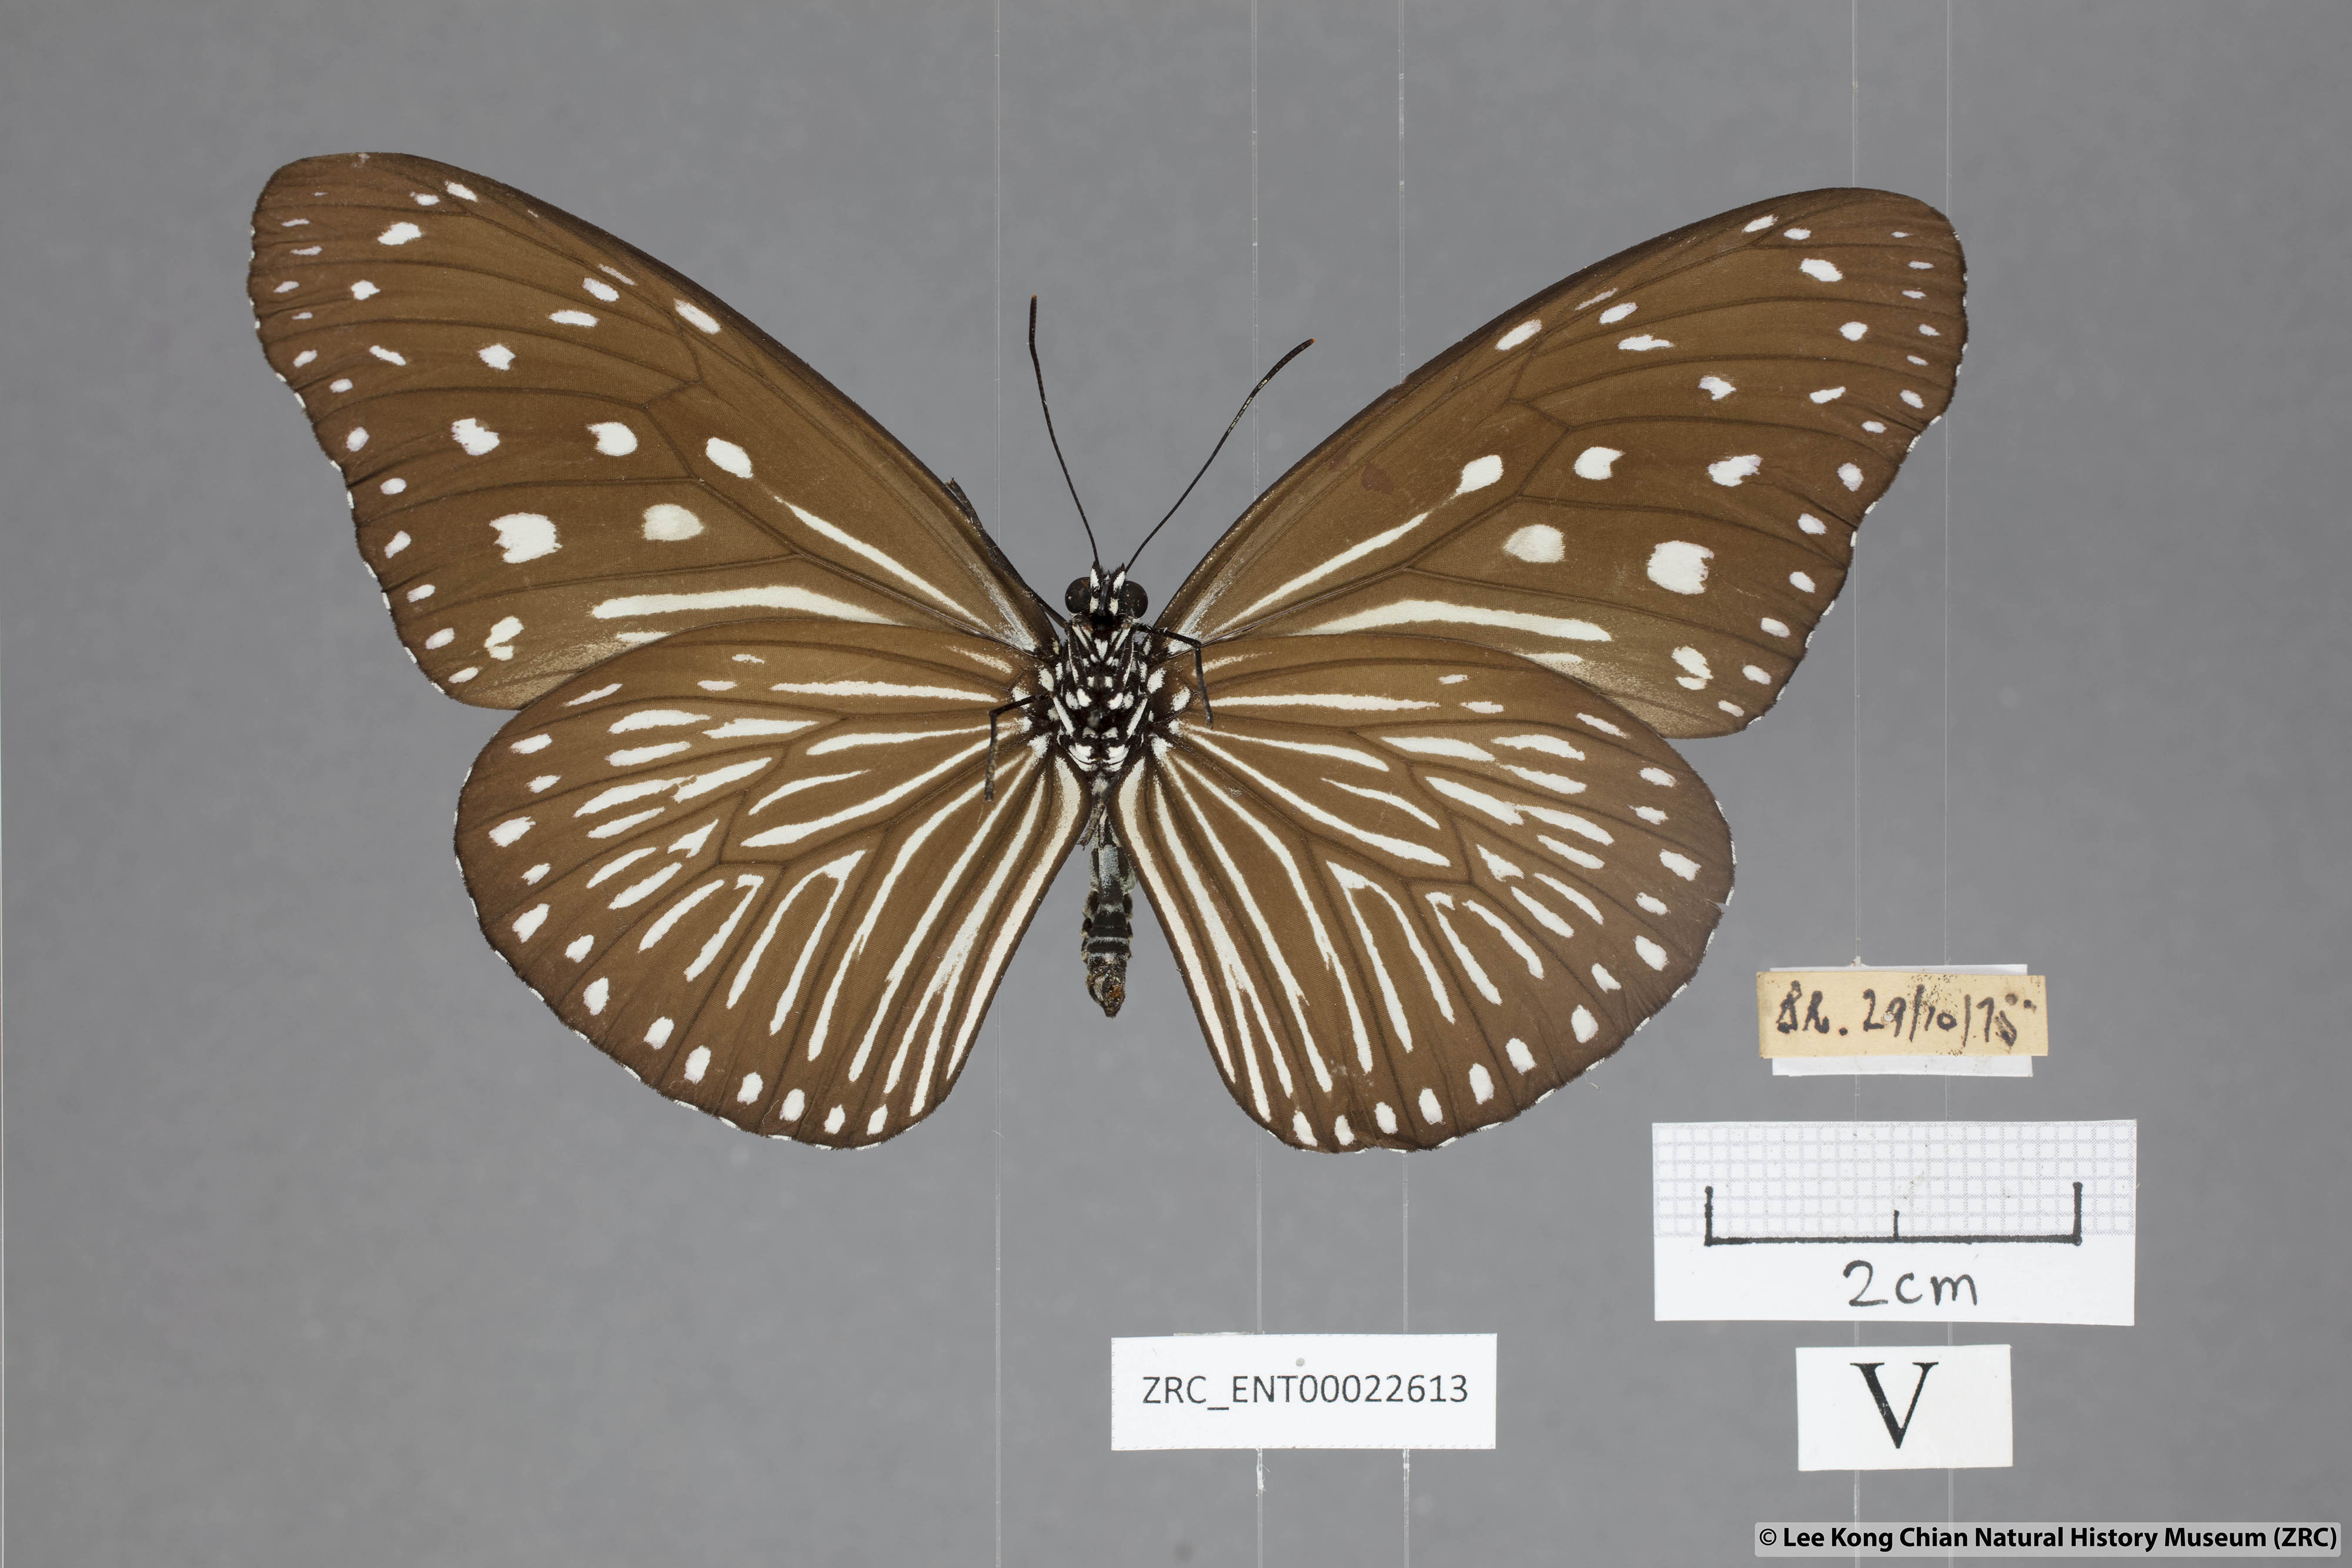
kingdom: Animalia
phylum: Arthropoda
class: Insecta
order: Lepidoptera
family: Nymphalidae
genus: Euploea
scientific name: Euploea mulciber
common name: Striped blue crow butterfly
